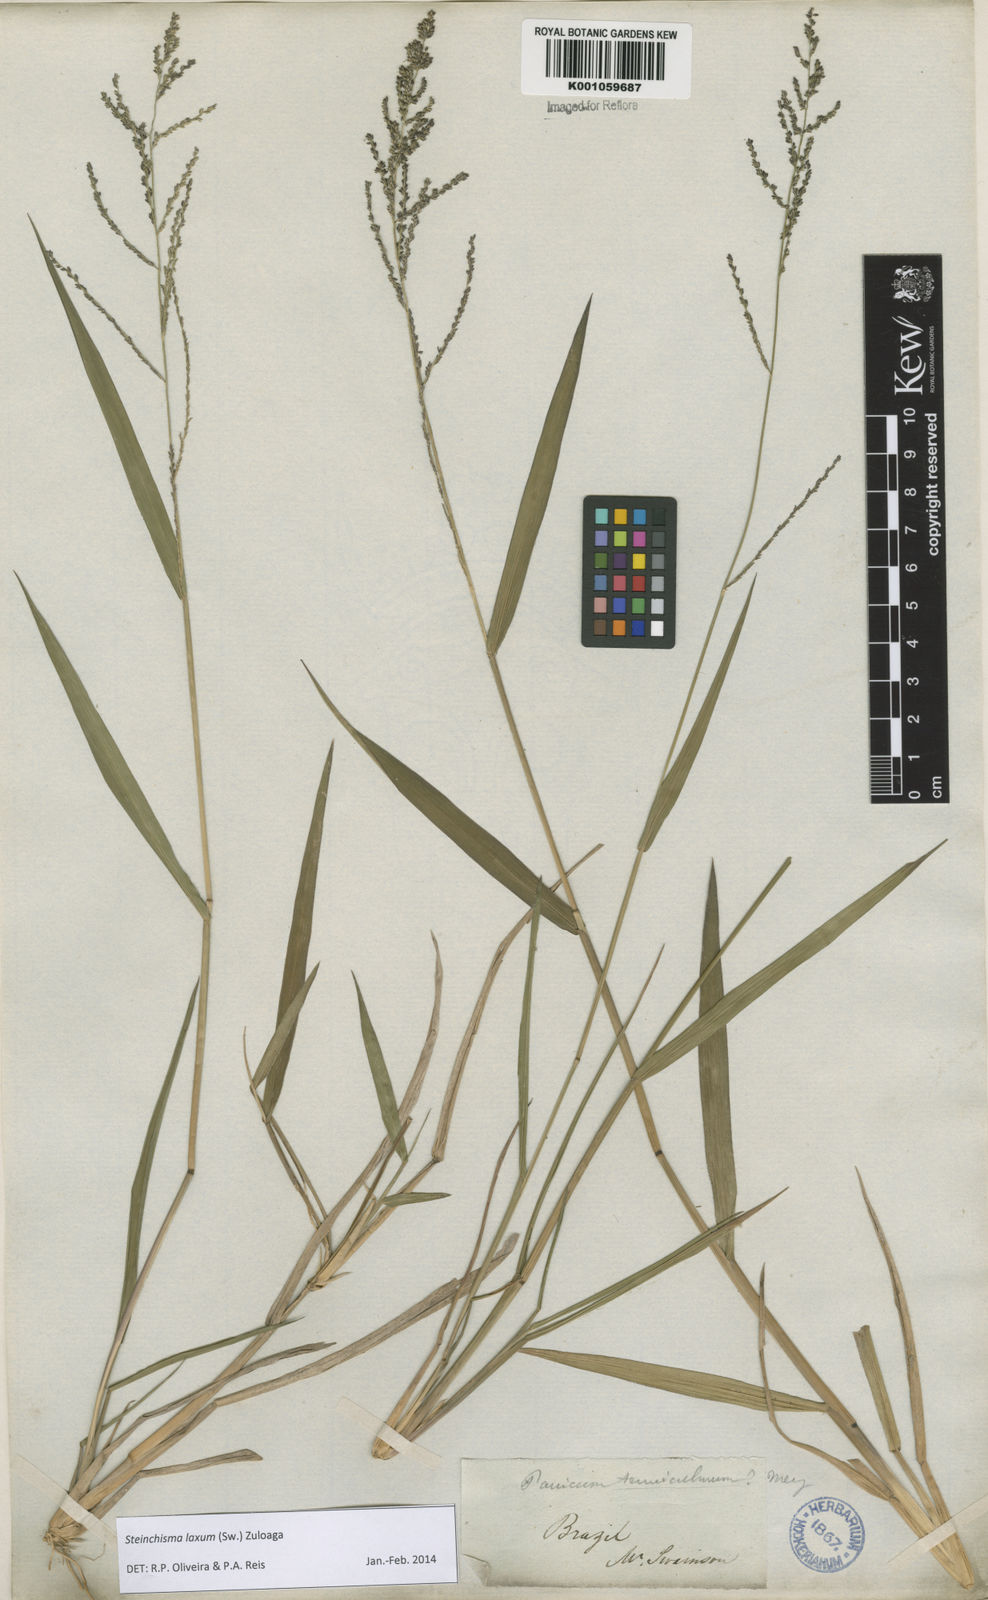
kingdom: Plantae
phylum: Tracheophyta
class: Liliopsida
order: Poales
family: Poaceae
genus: Steinchisma
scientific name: Steinchisma laxum
